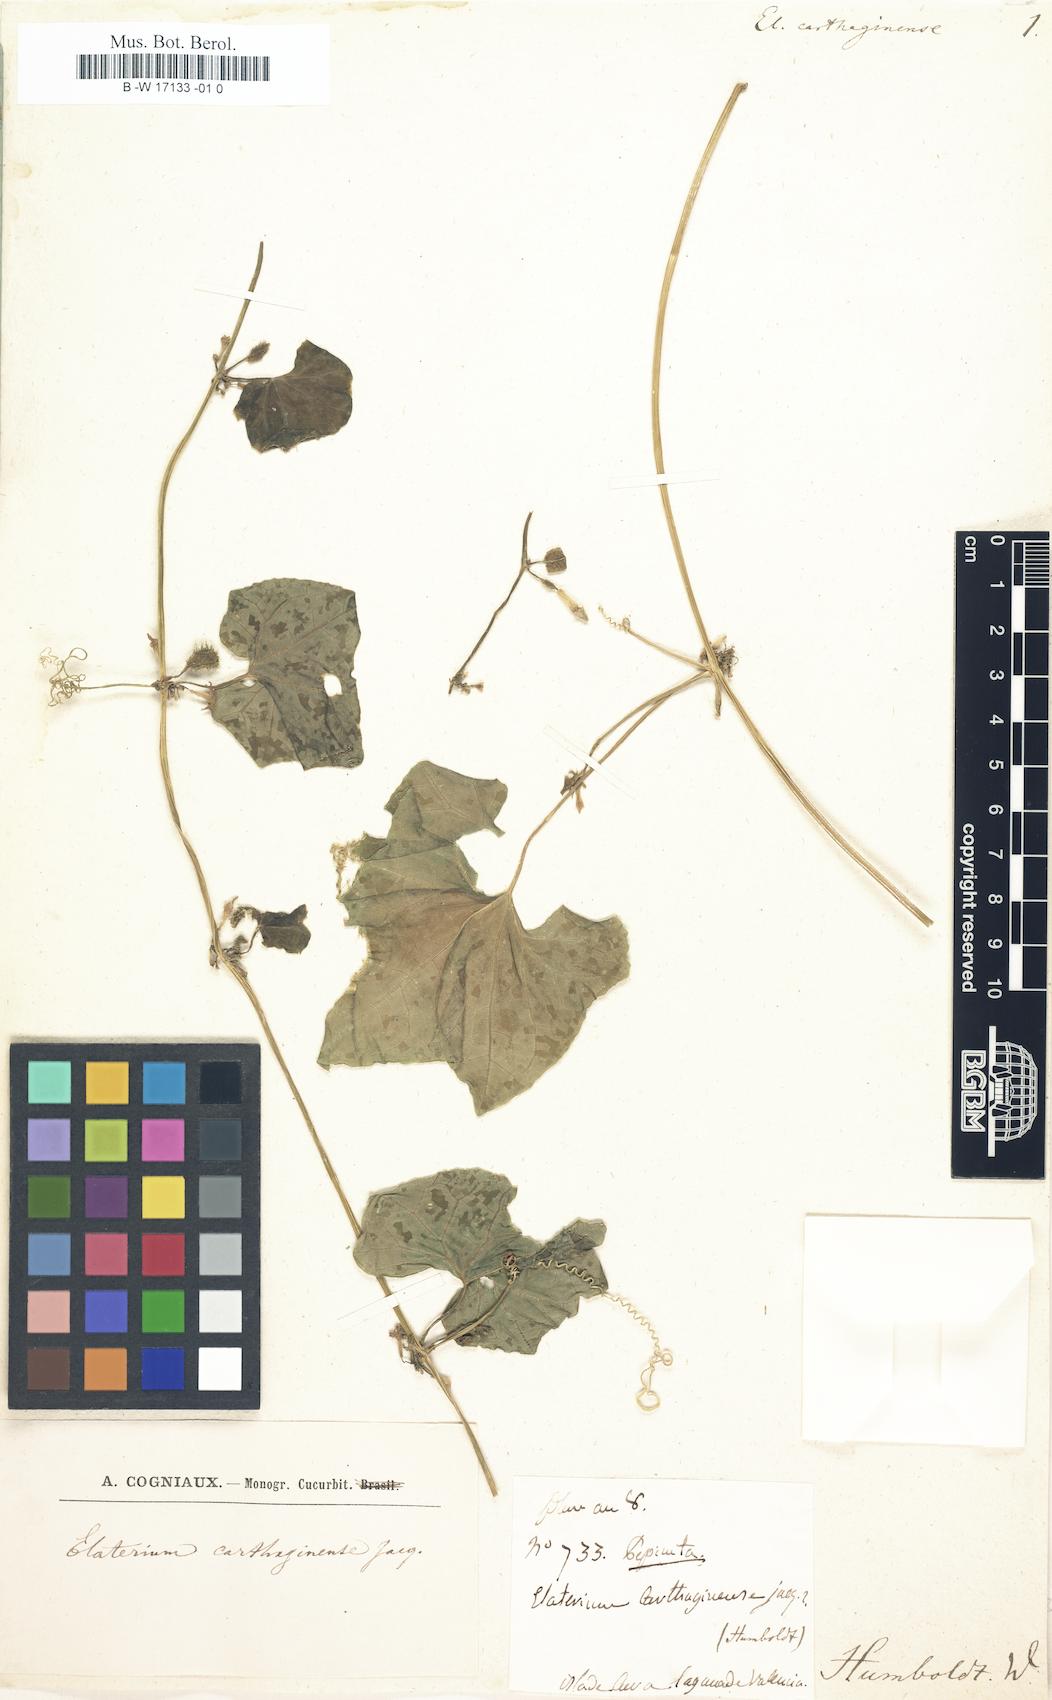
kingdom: Plantae
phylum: Tracheophyta
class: Magnoliopsida
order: Cucurbitales
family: Cucurbitaceae
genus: Cyclanthera
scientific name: Cyclanthera carthagenensis
